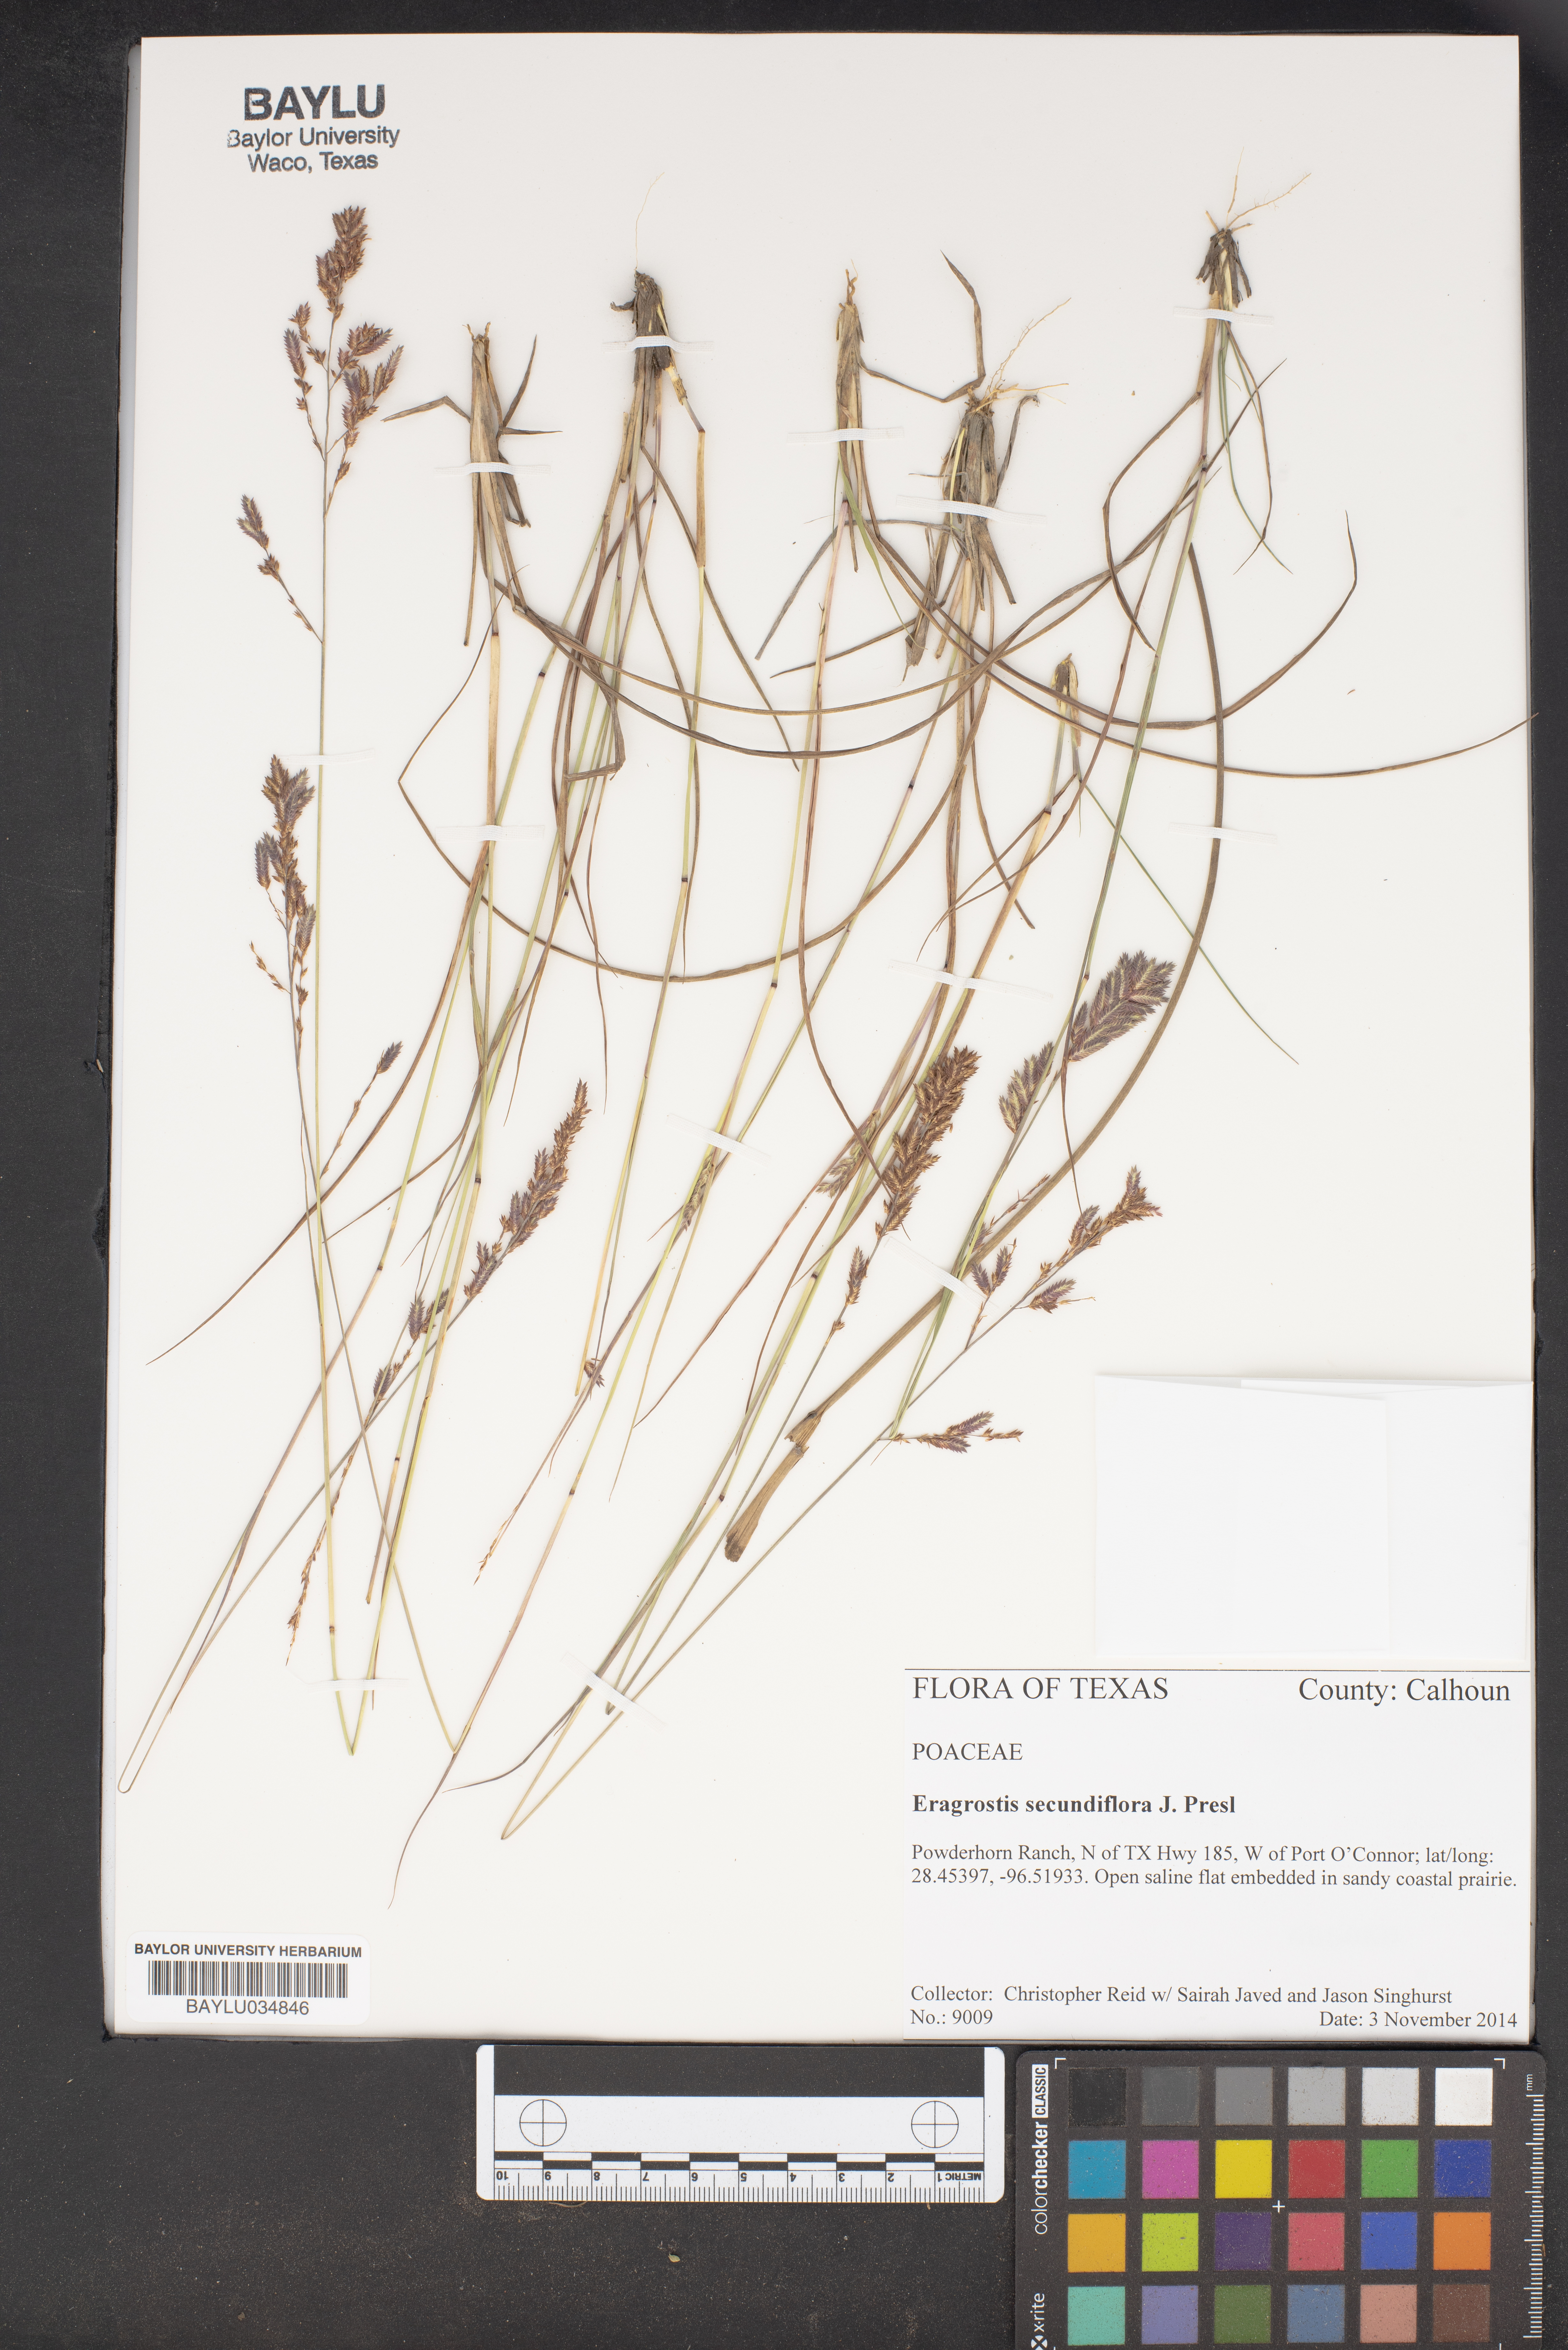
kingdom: Plantae
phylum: Tracheophyta
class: Liliopsida
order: Poales
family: Poaceae
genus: Eragrostis
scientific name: Eragrostis secundiflora
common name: Red love grass
